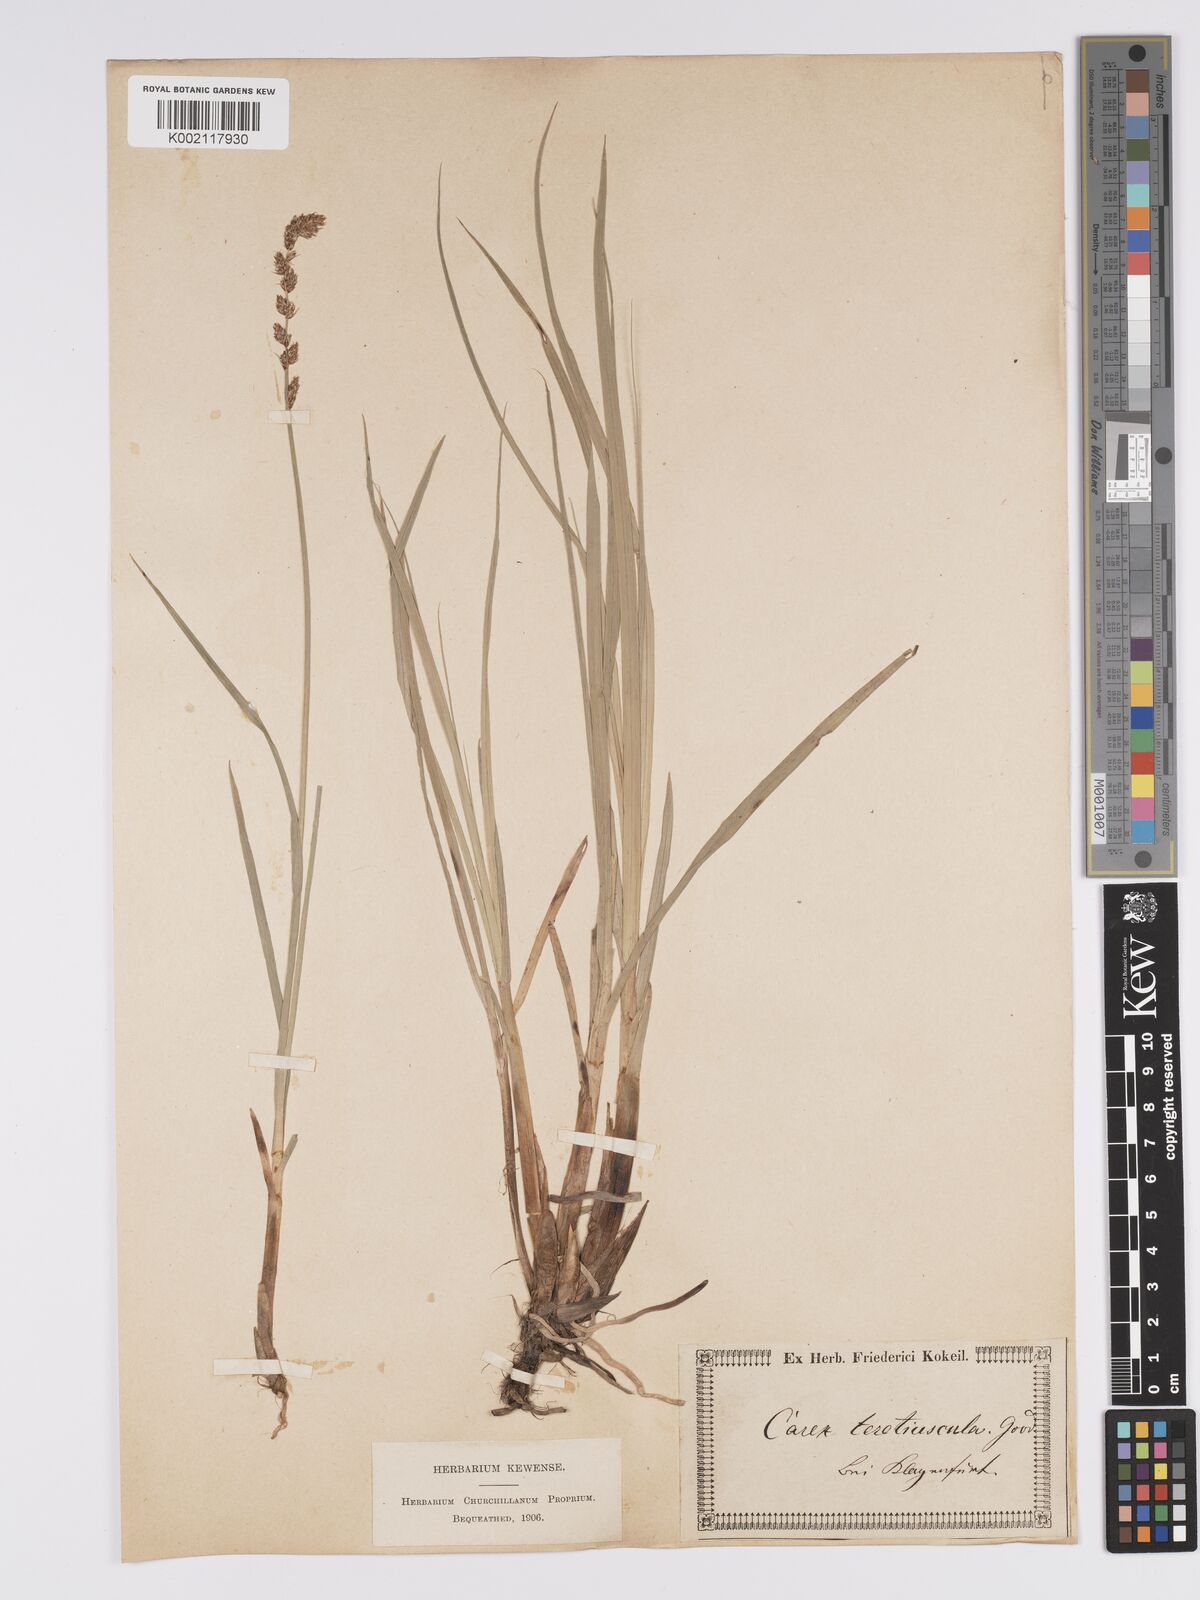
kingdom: Plantae
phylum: Tracheophyta
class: Liliopsida
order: Poales
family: Cyperaceae
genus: Carex
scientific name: Carex diandra
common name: Lesser tussock-sedge
